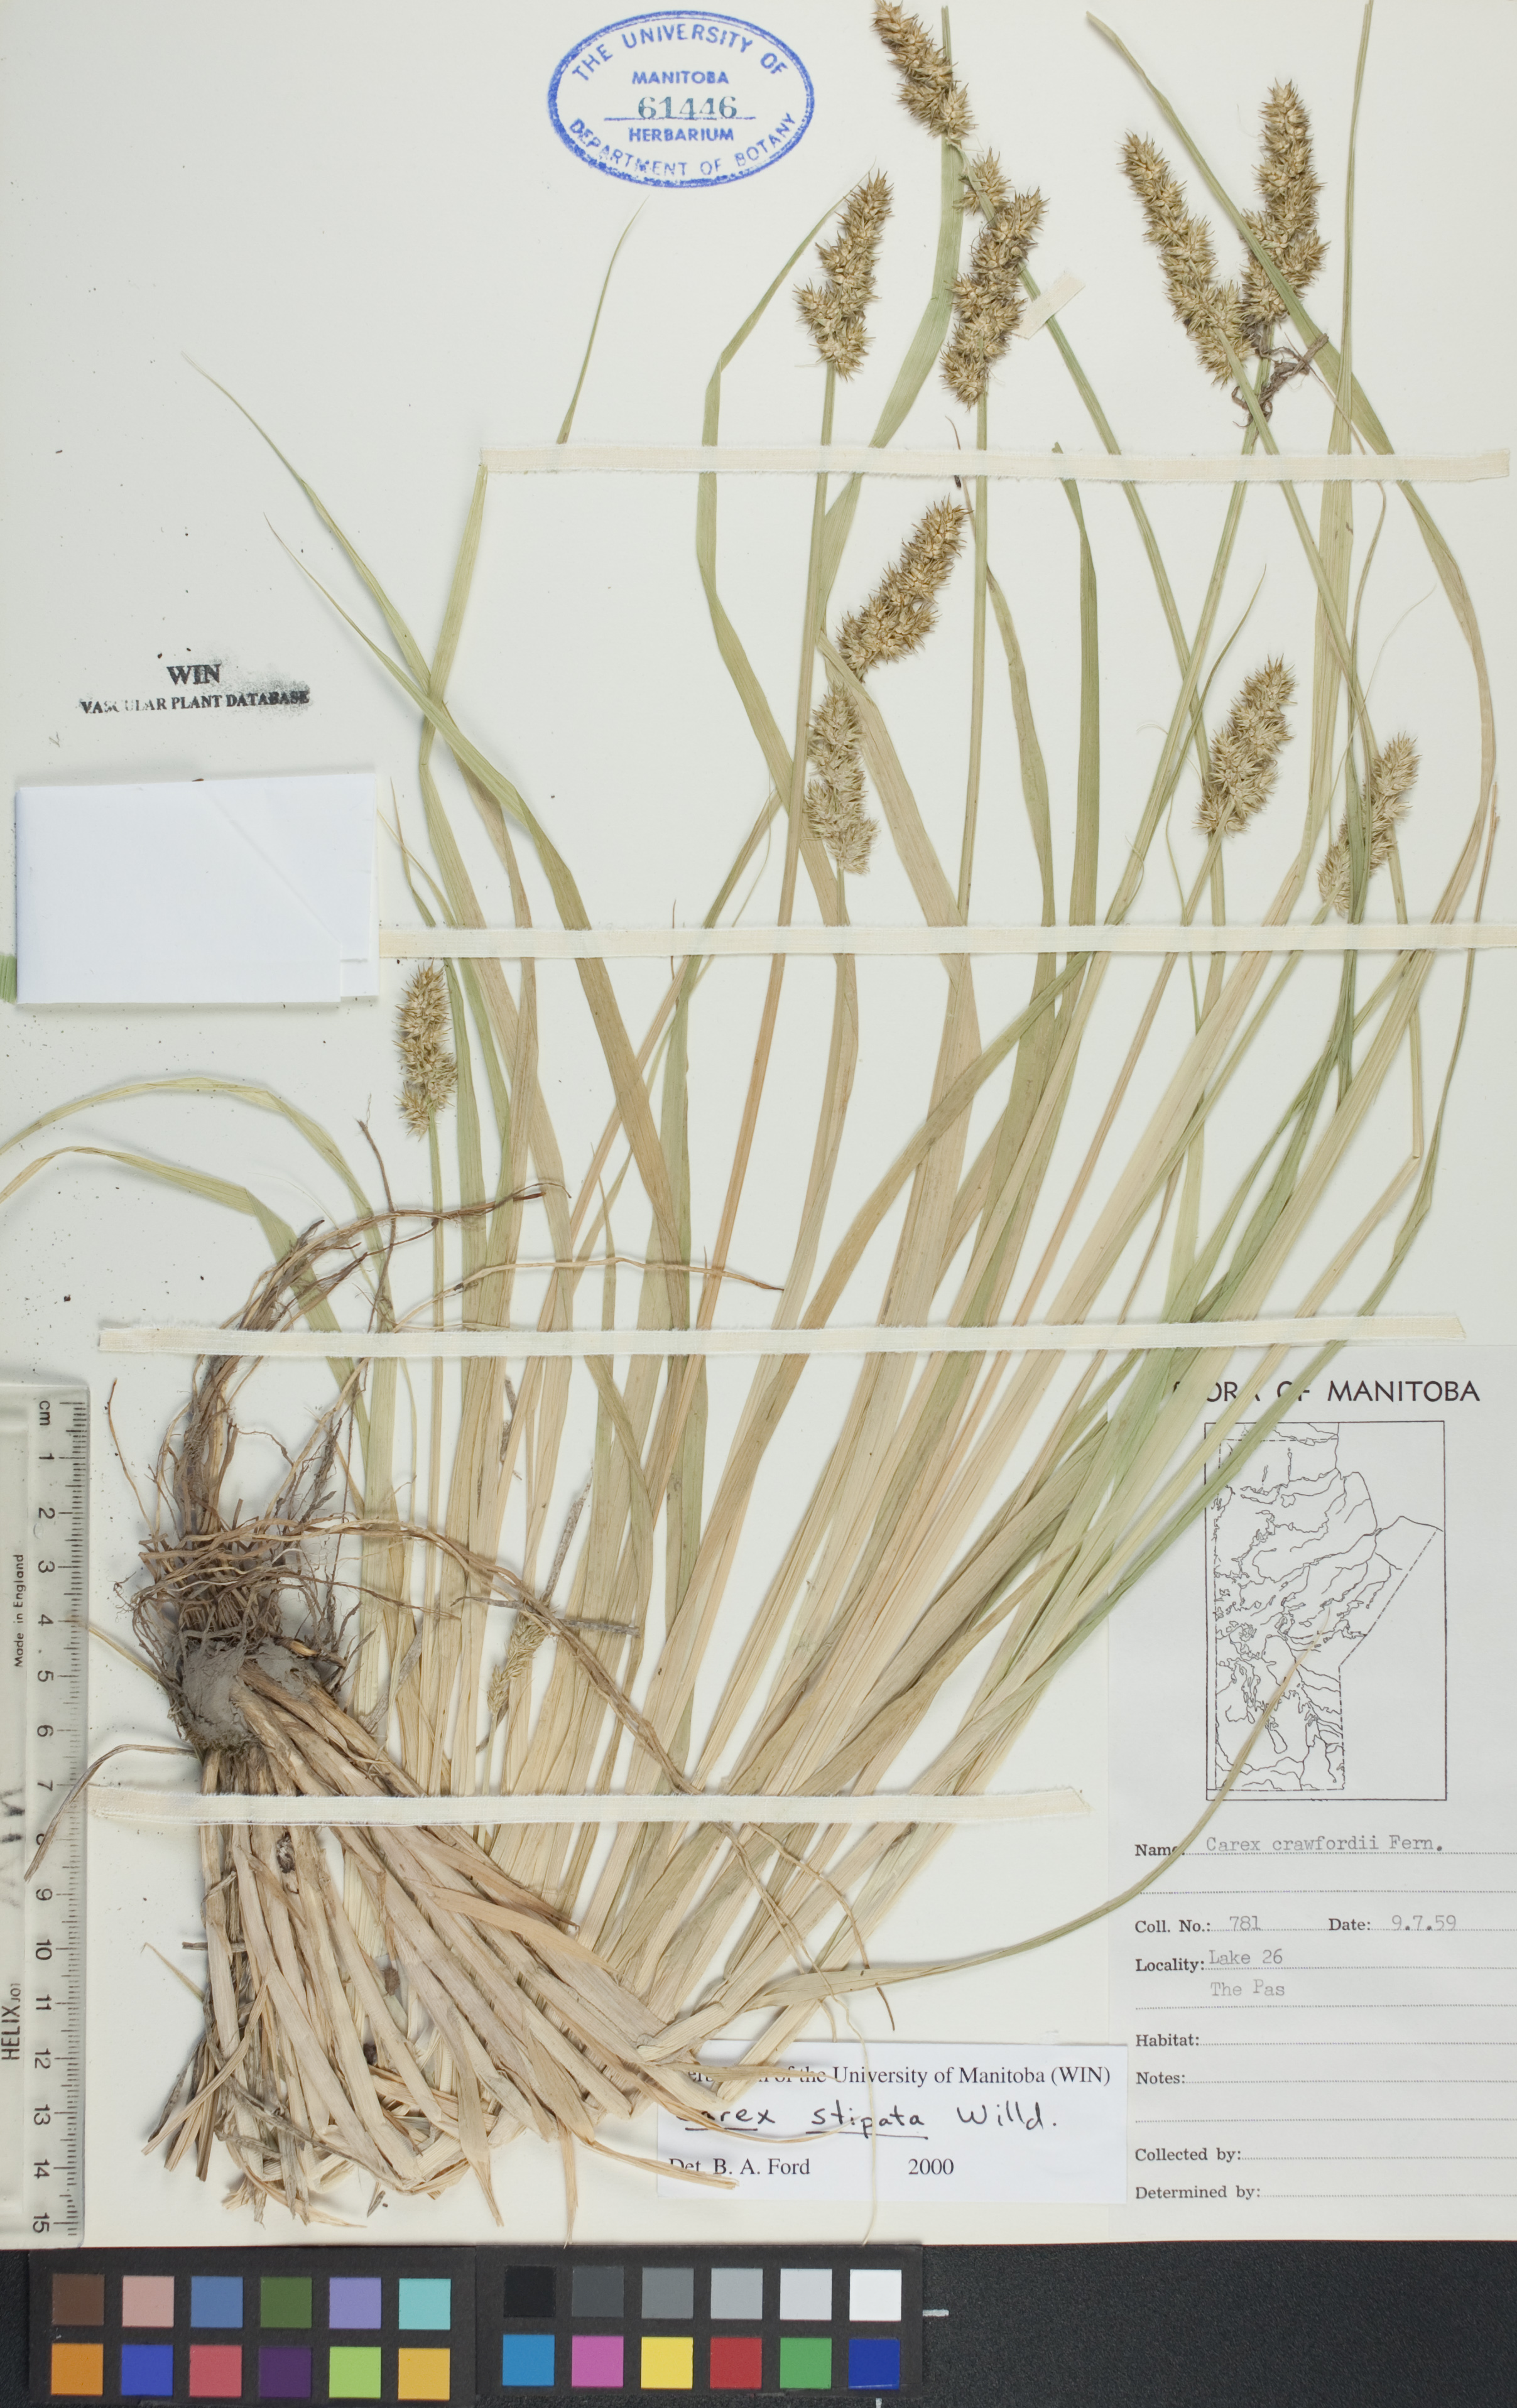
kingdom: Plantae
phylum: Tracheophyta
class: Liliopsida
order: Poales
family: Cyperaceae
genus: Carex
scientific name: Carex stipata
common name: Awl-fruited sedge
